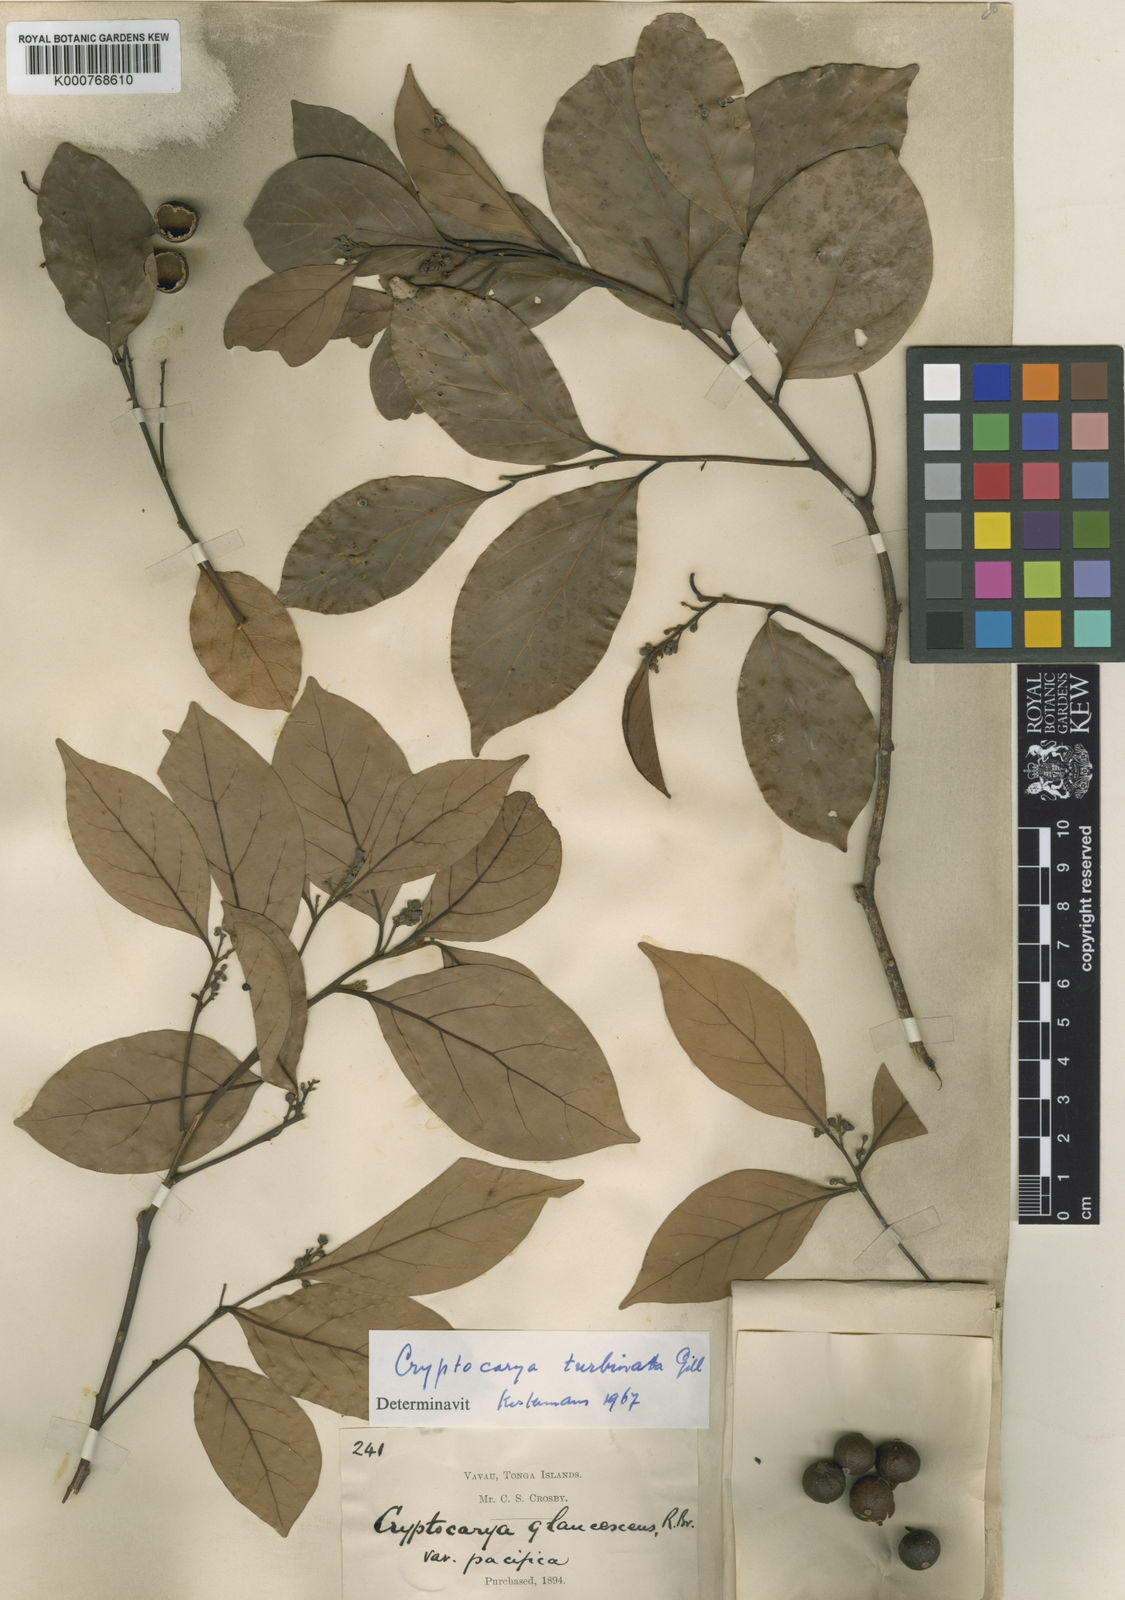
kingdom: Plantae
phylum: Tracheophyta
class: Magnoliopsida
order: Laurales
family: Lauraceae
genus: Cryptocarya
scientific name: Cryptocarya turbinata
